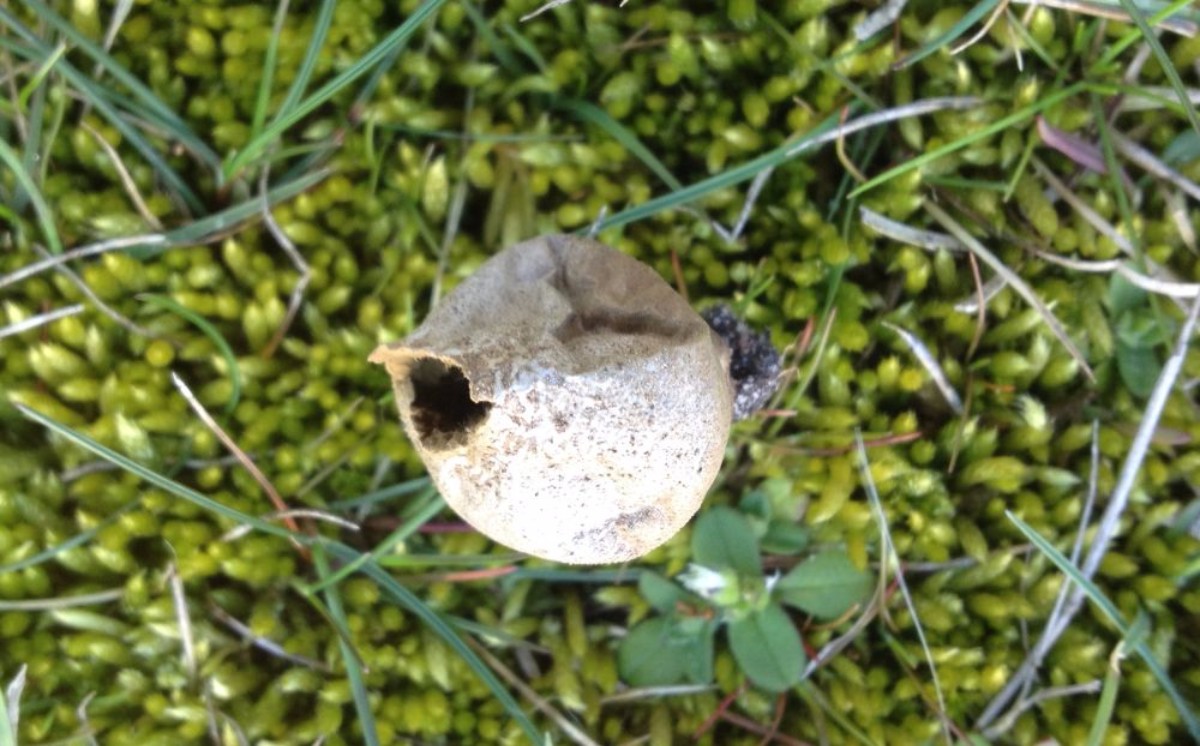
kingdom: Fungi
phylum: Basidiomycota
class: Agaricomycetes
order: Agaricales
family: Lycoperdaceae
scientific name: Lycoperdaceae
